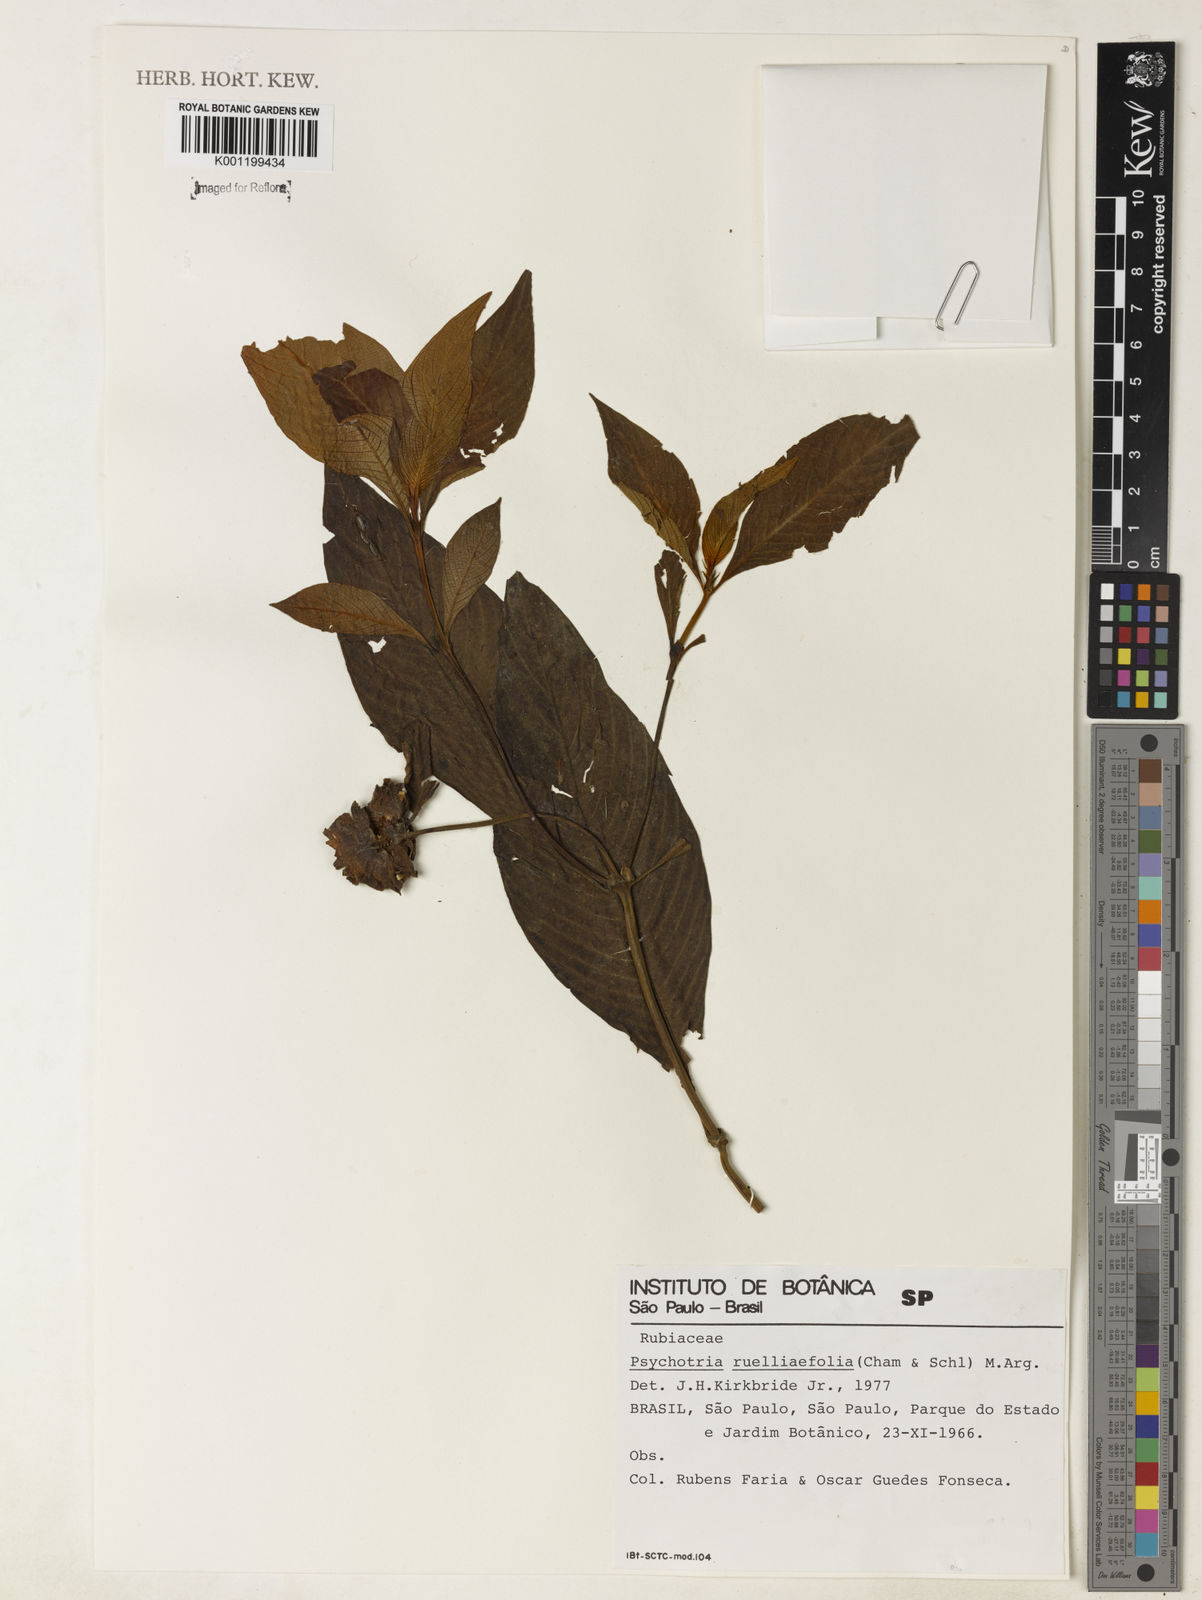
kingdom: Plantae
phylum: Tracheophyta
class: Magnoliopsida
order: Gentianales
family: Rubiaceae
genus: Psychotria
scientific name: Psychotria
